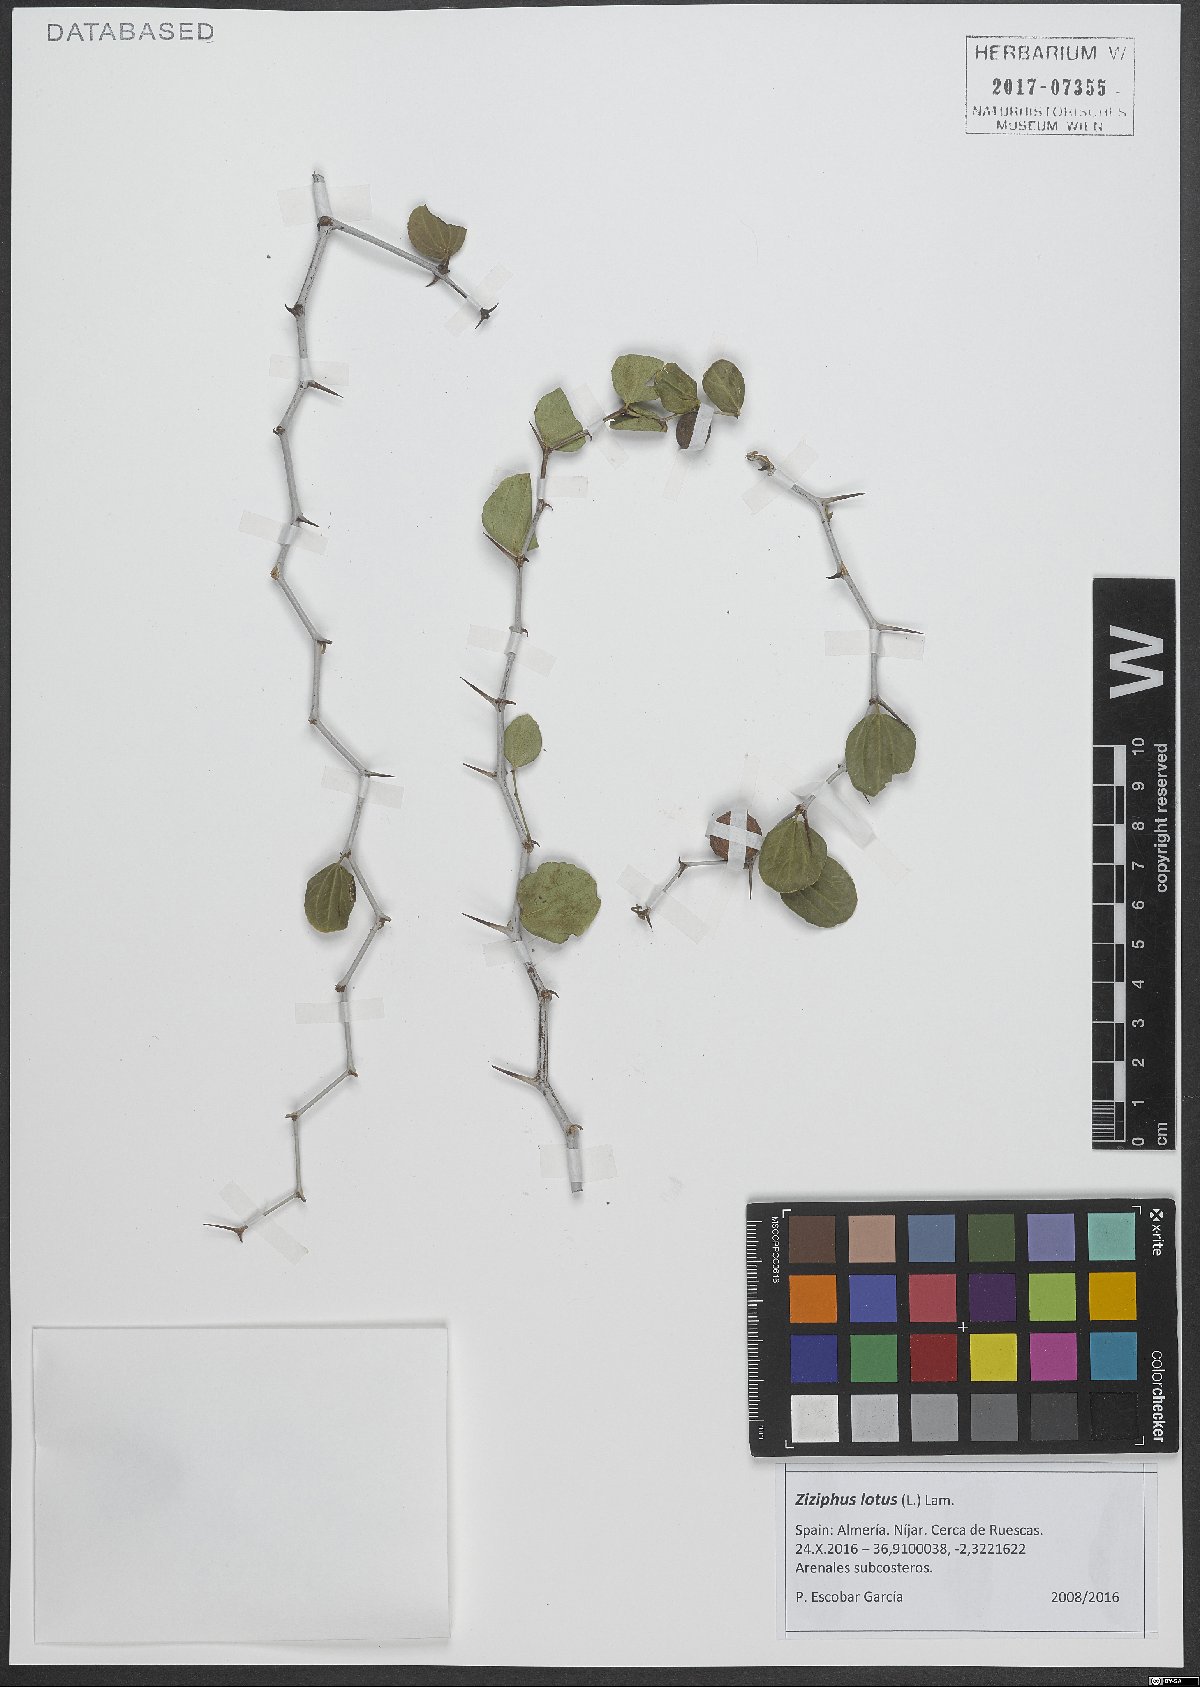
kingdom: Plantae
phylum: Tracheophyta
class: Magnoliopsida
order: Rosales
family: Rhamnaceae
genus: Ziziphus
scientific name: Ziziphus lotus
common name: Lotus
